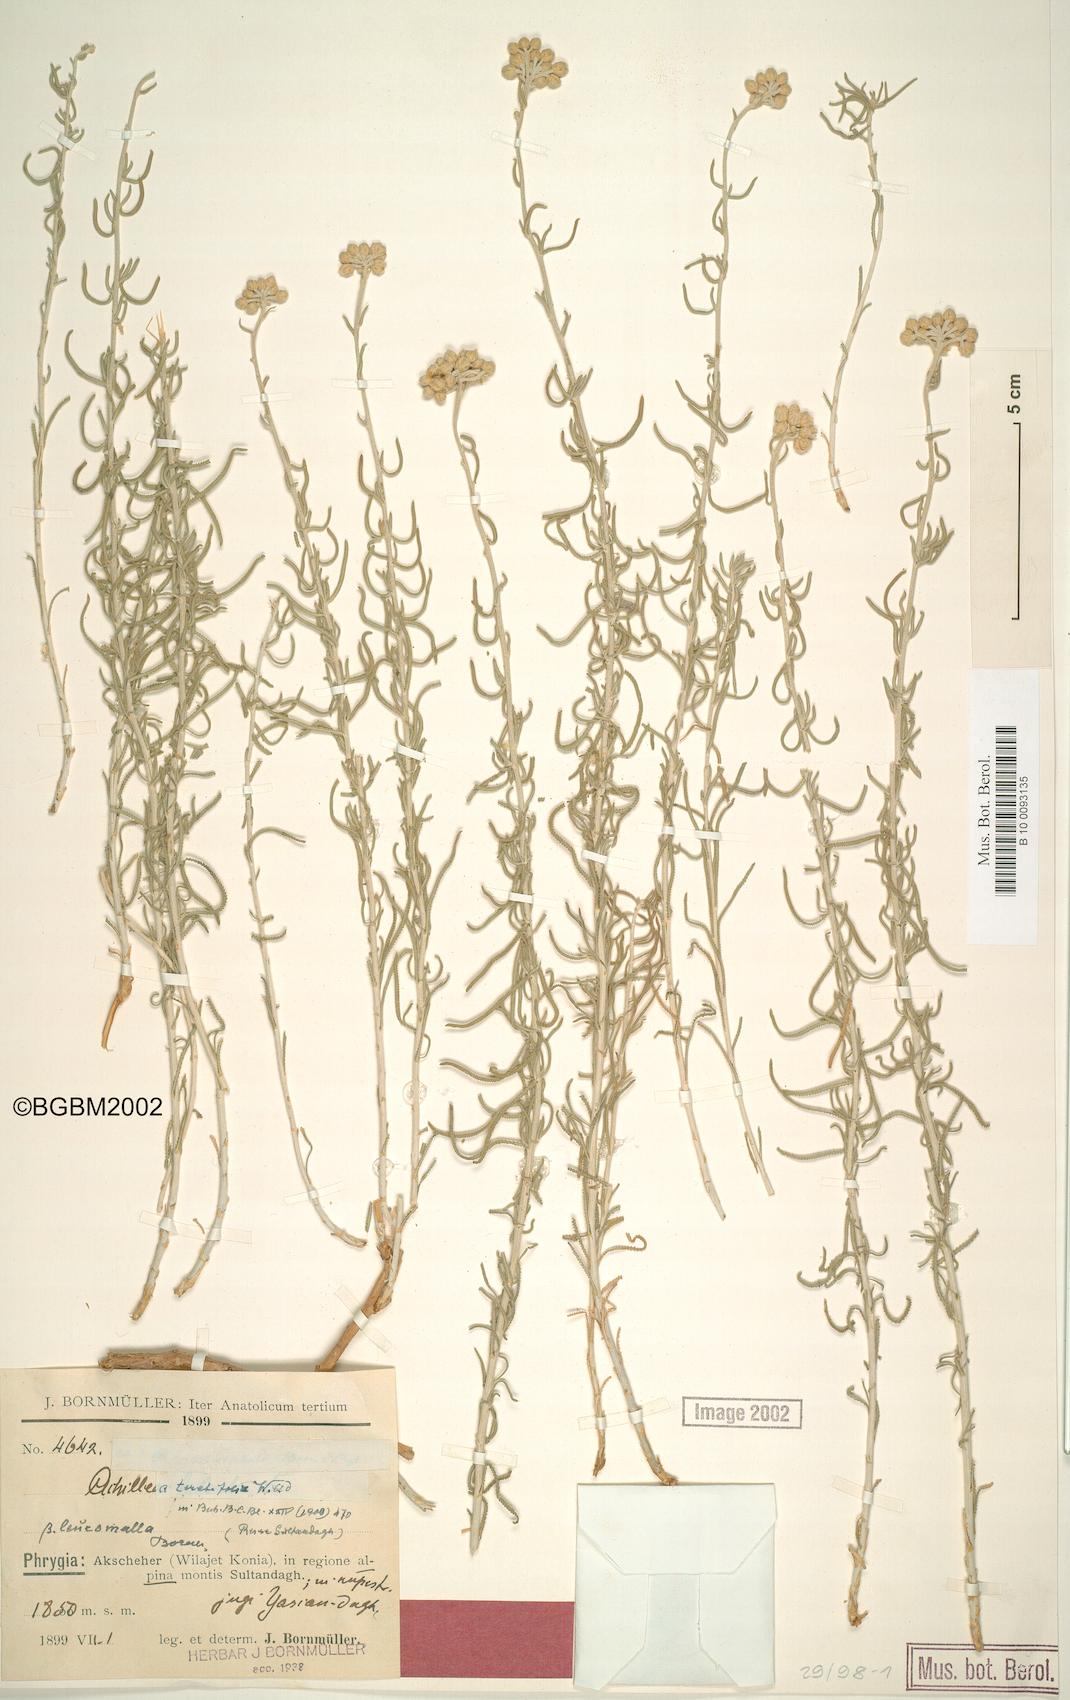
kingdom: Plantae
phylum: Tracheophyta
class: Magnoliopsida
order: Asterales
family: Asteraceae
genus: Achillea
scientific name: Achillea teretifolia
